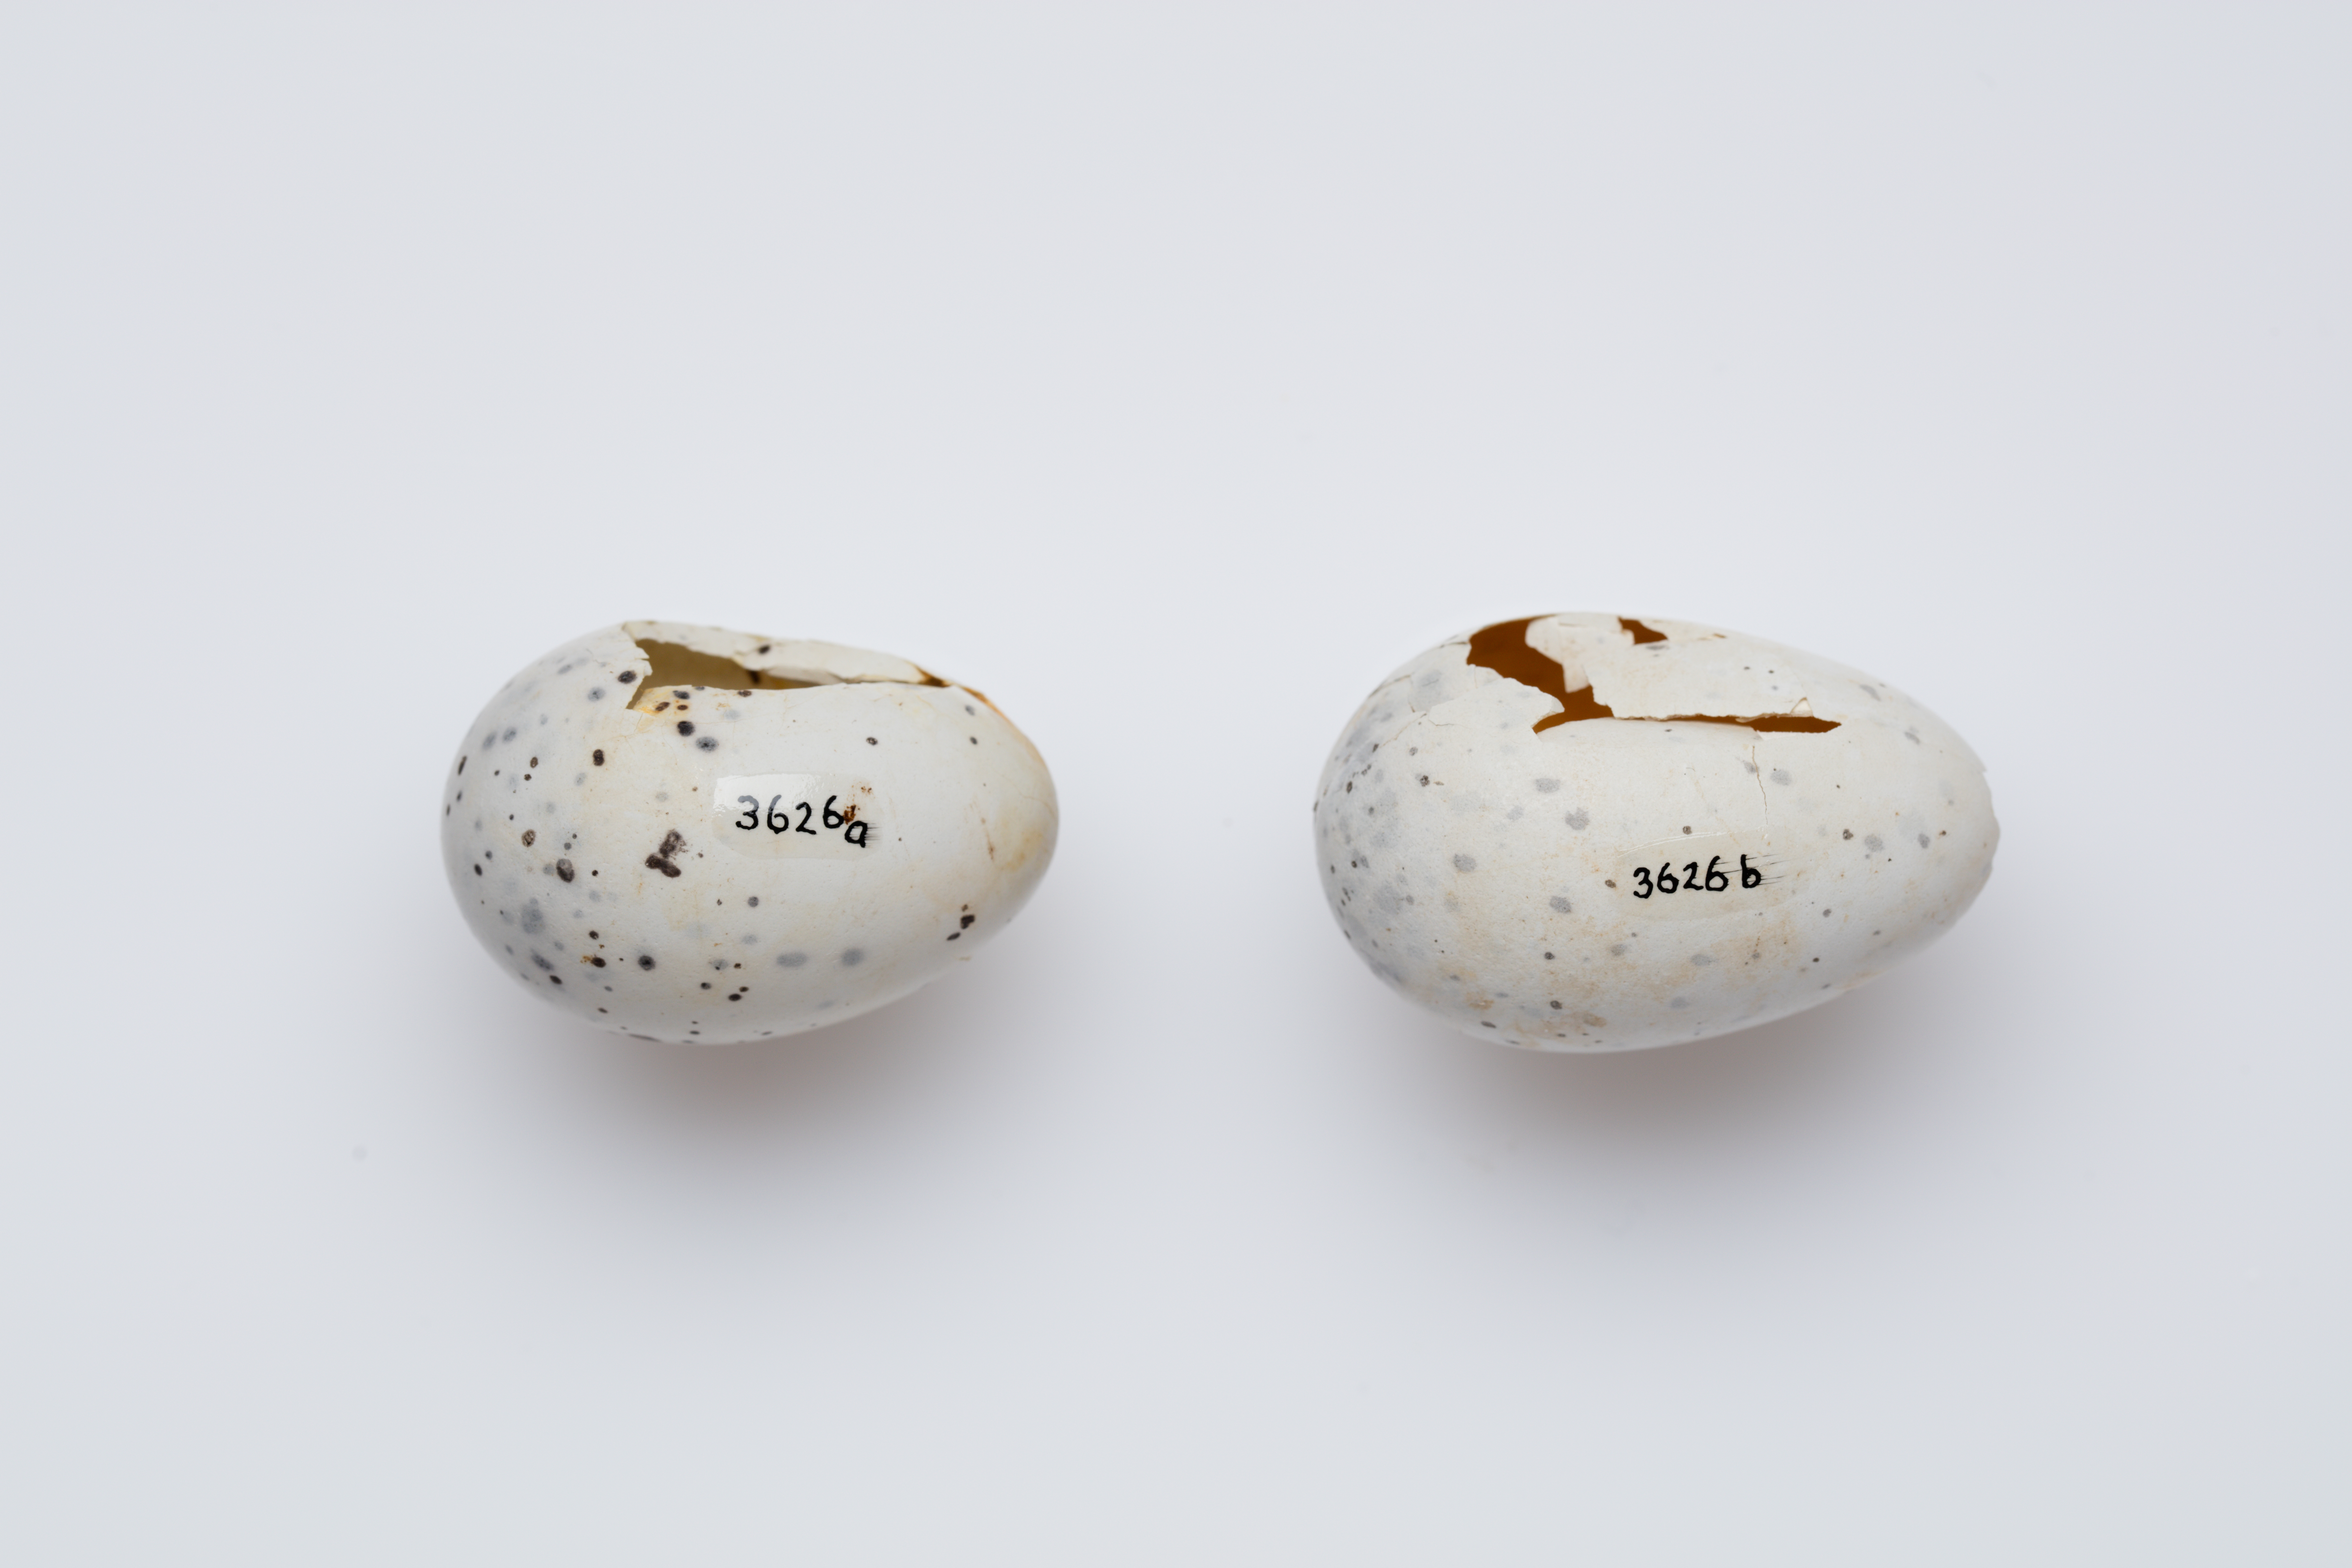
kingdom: Animalia
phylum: Chordata
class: Aves
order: Passeriformes
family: Callaeatidae
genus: Callaeas
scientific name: Callaeas cinereus
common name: South island kokako
